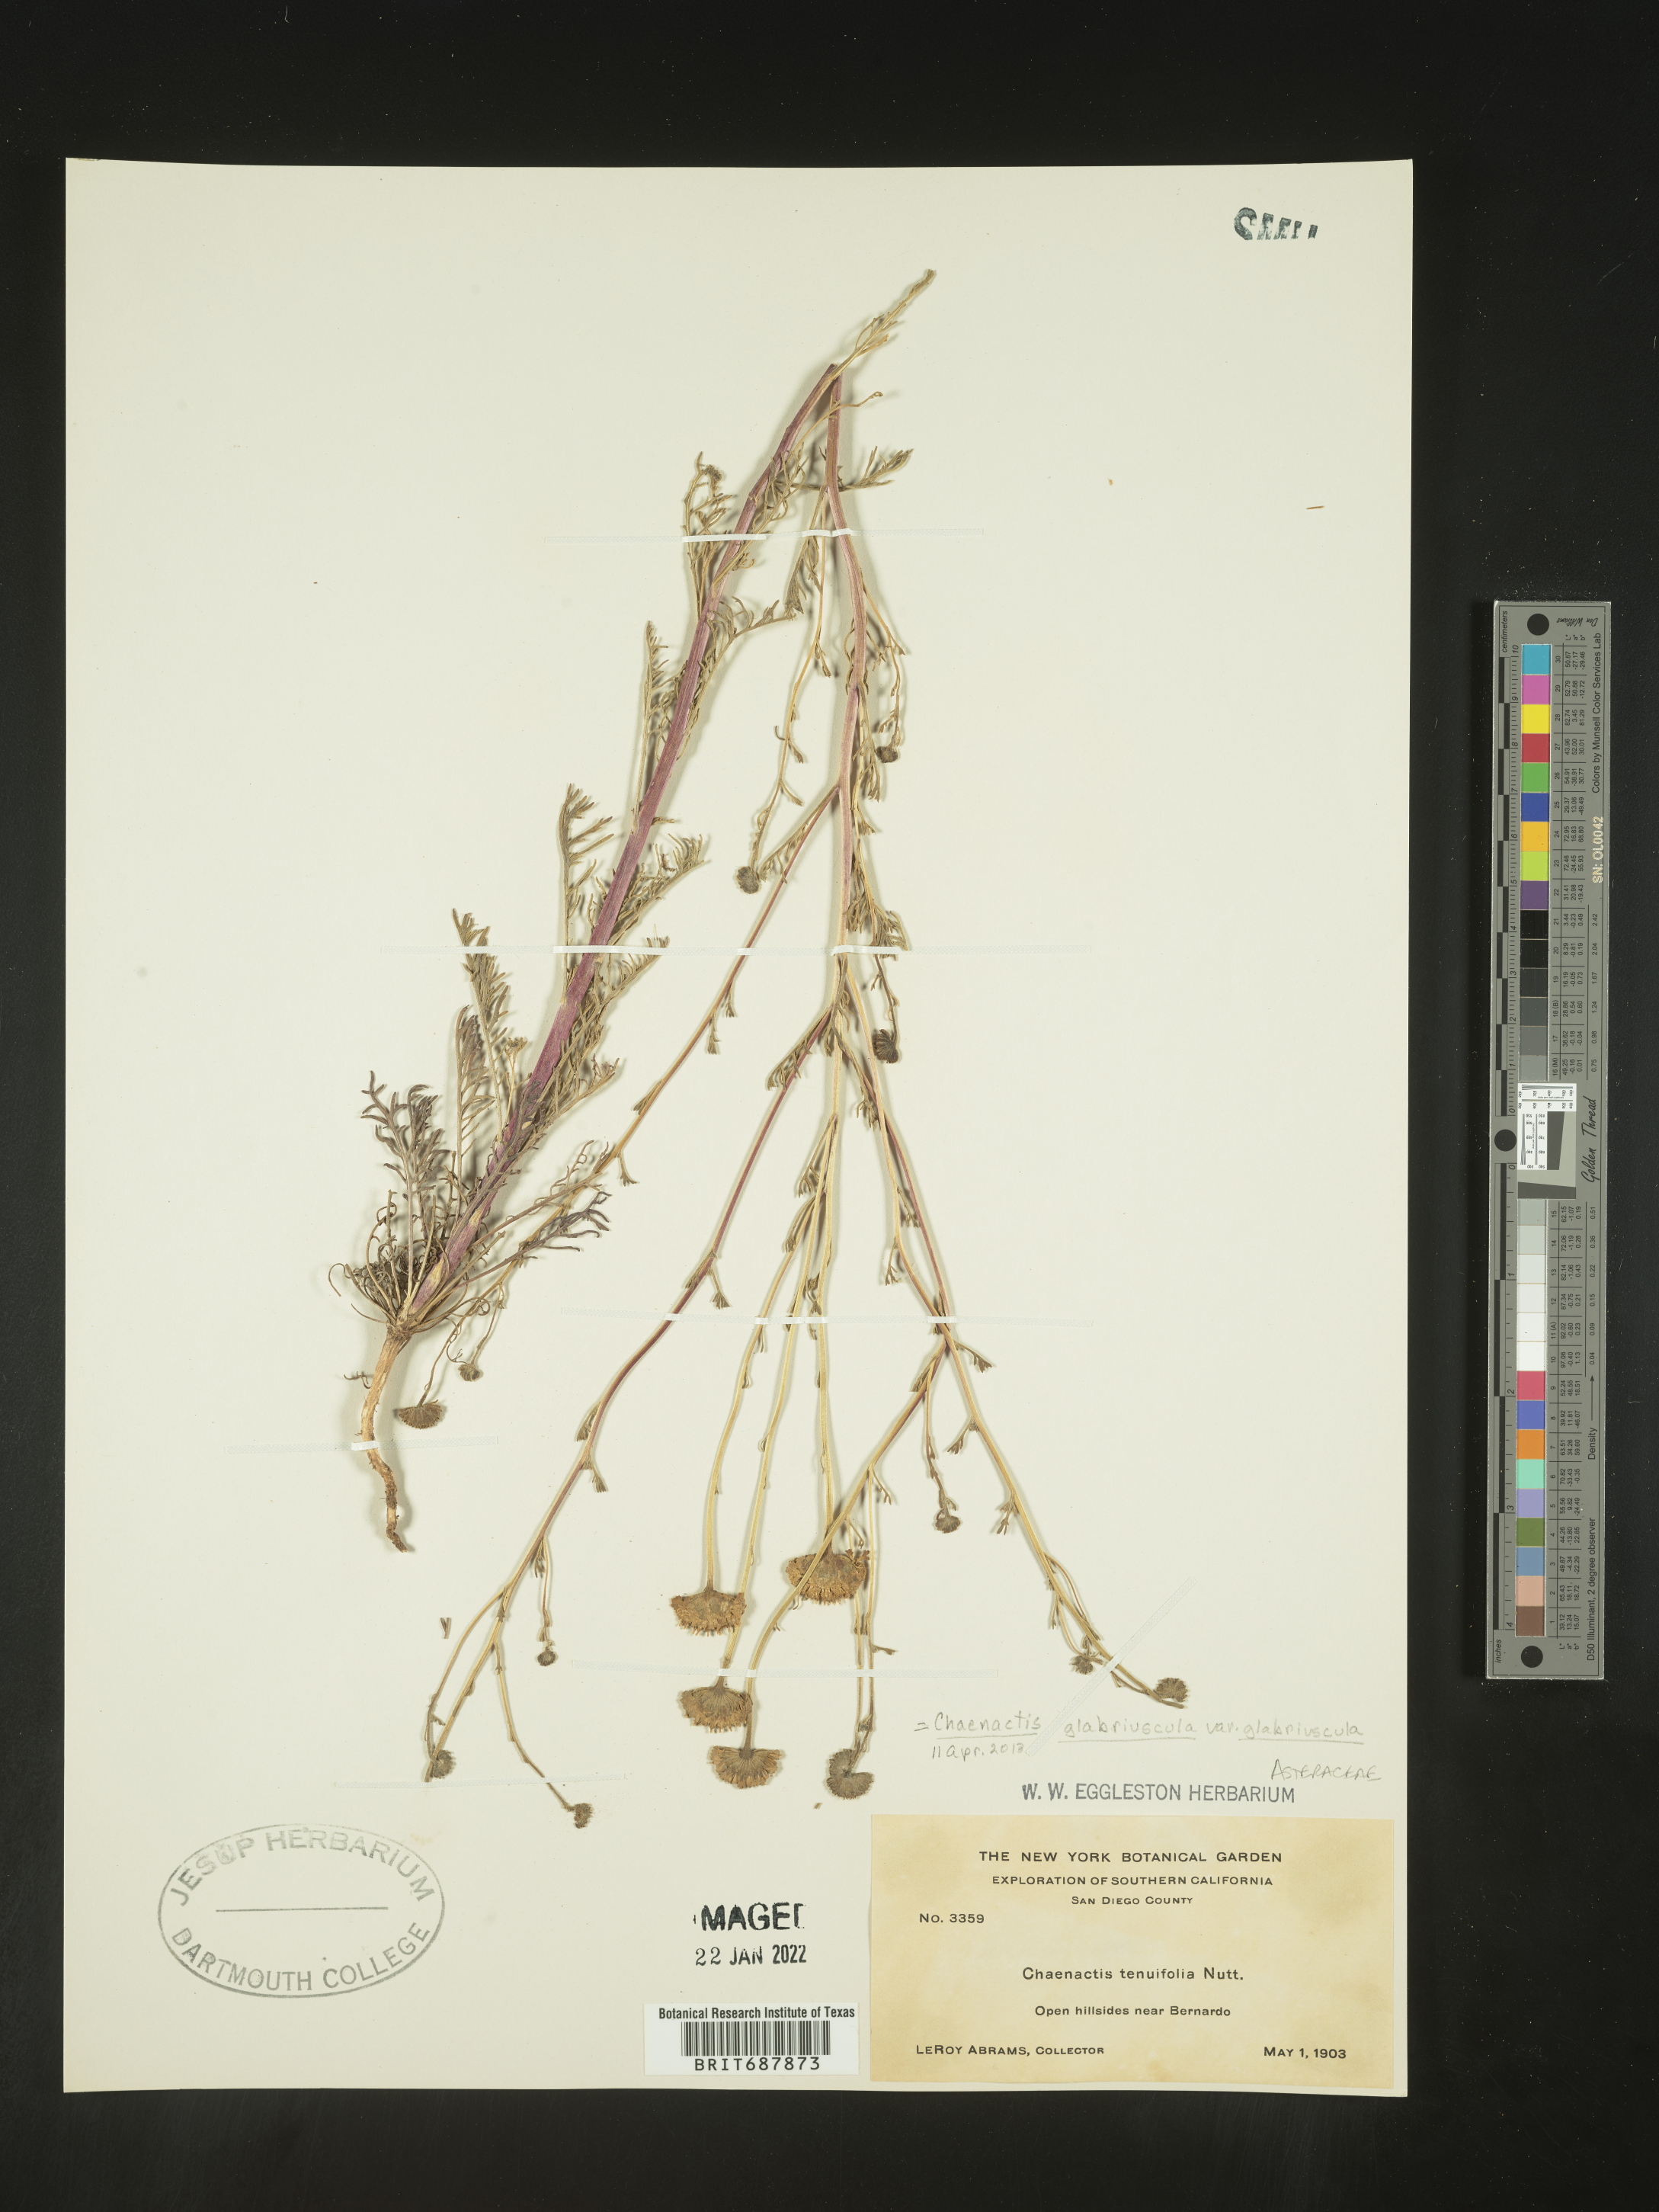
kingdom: Plantae
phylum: Tracheophyta
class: Magnoliopsida
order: Asterales
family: Asteraceae
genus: Chaenactis
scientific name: Chaenactis glabriuscula
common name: Yellow pincushion
